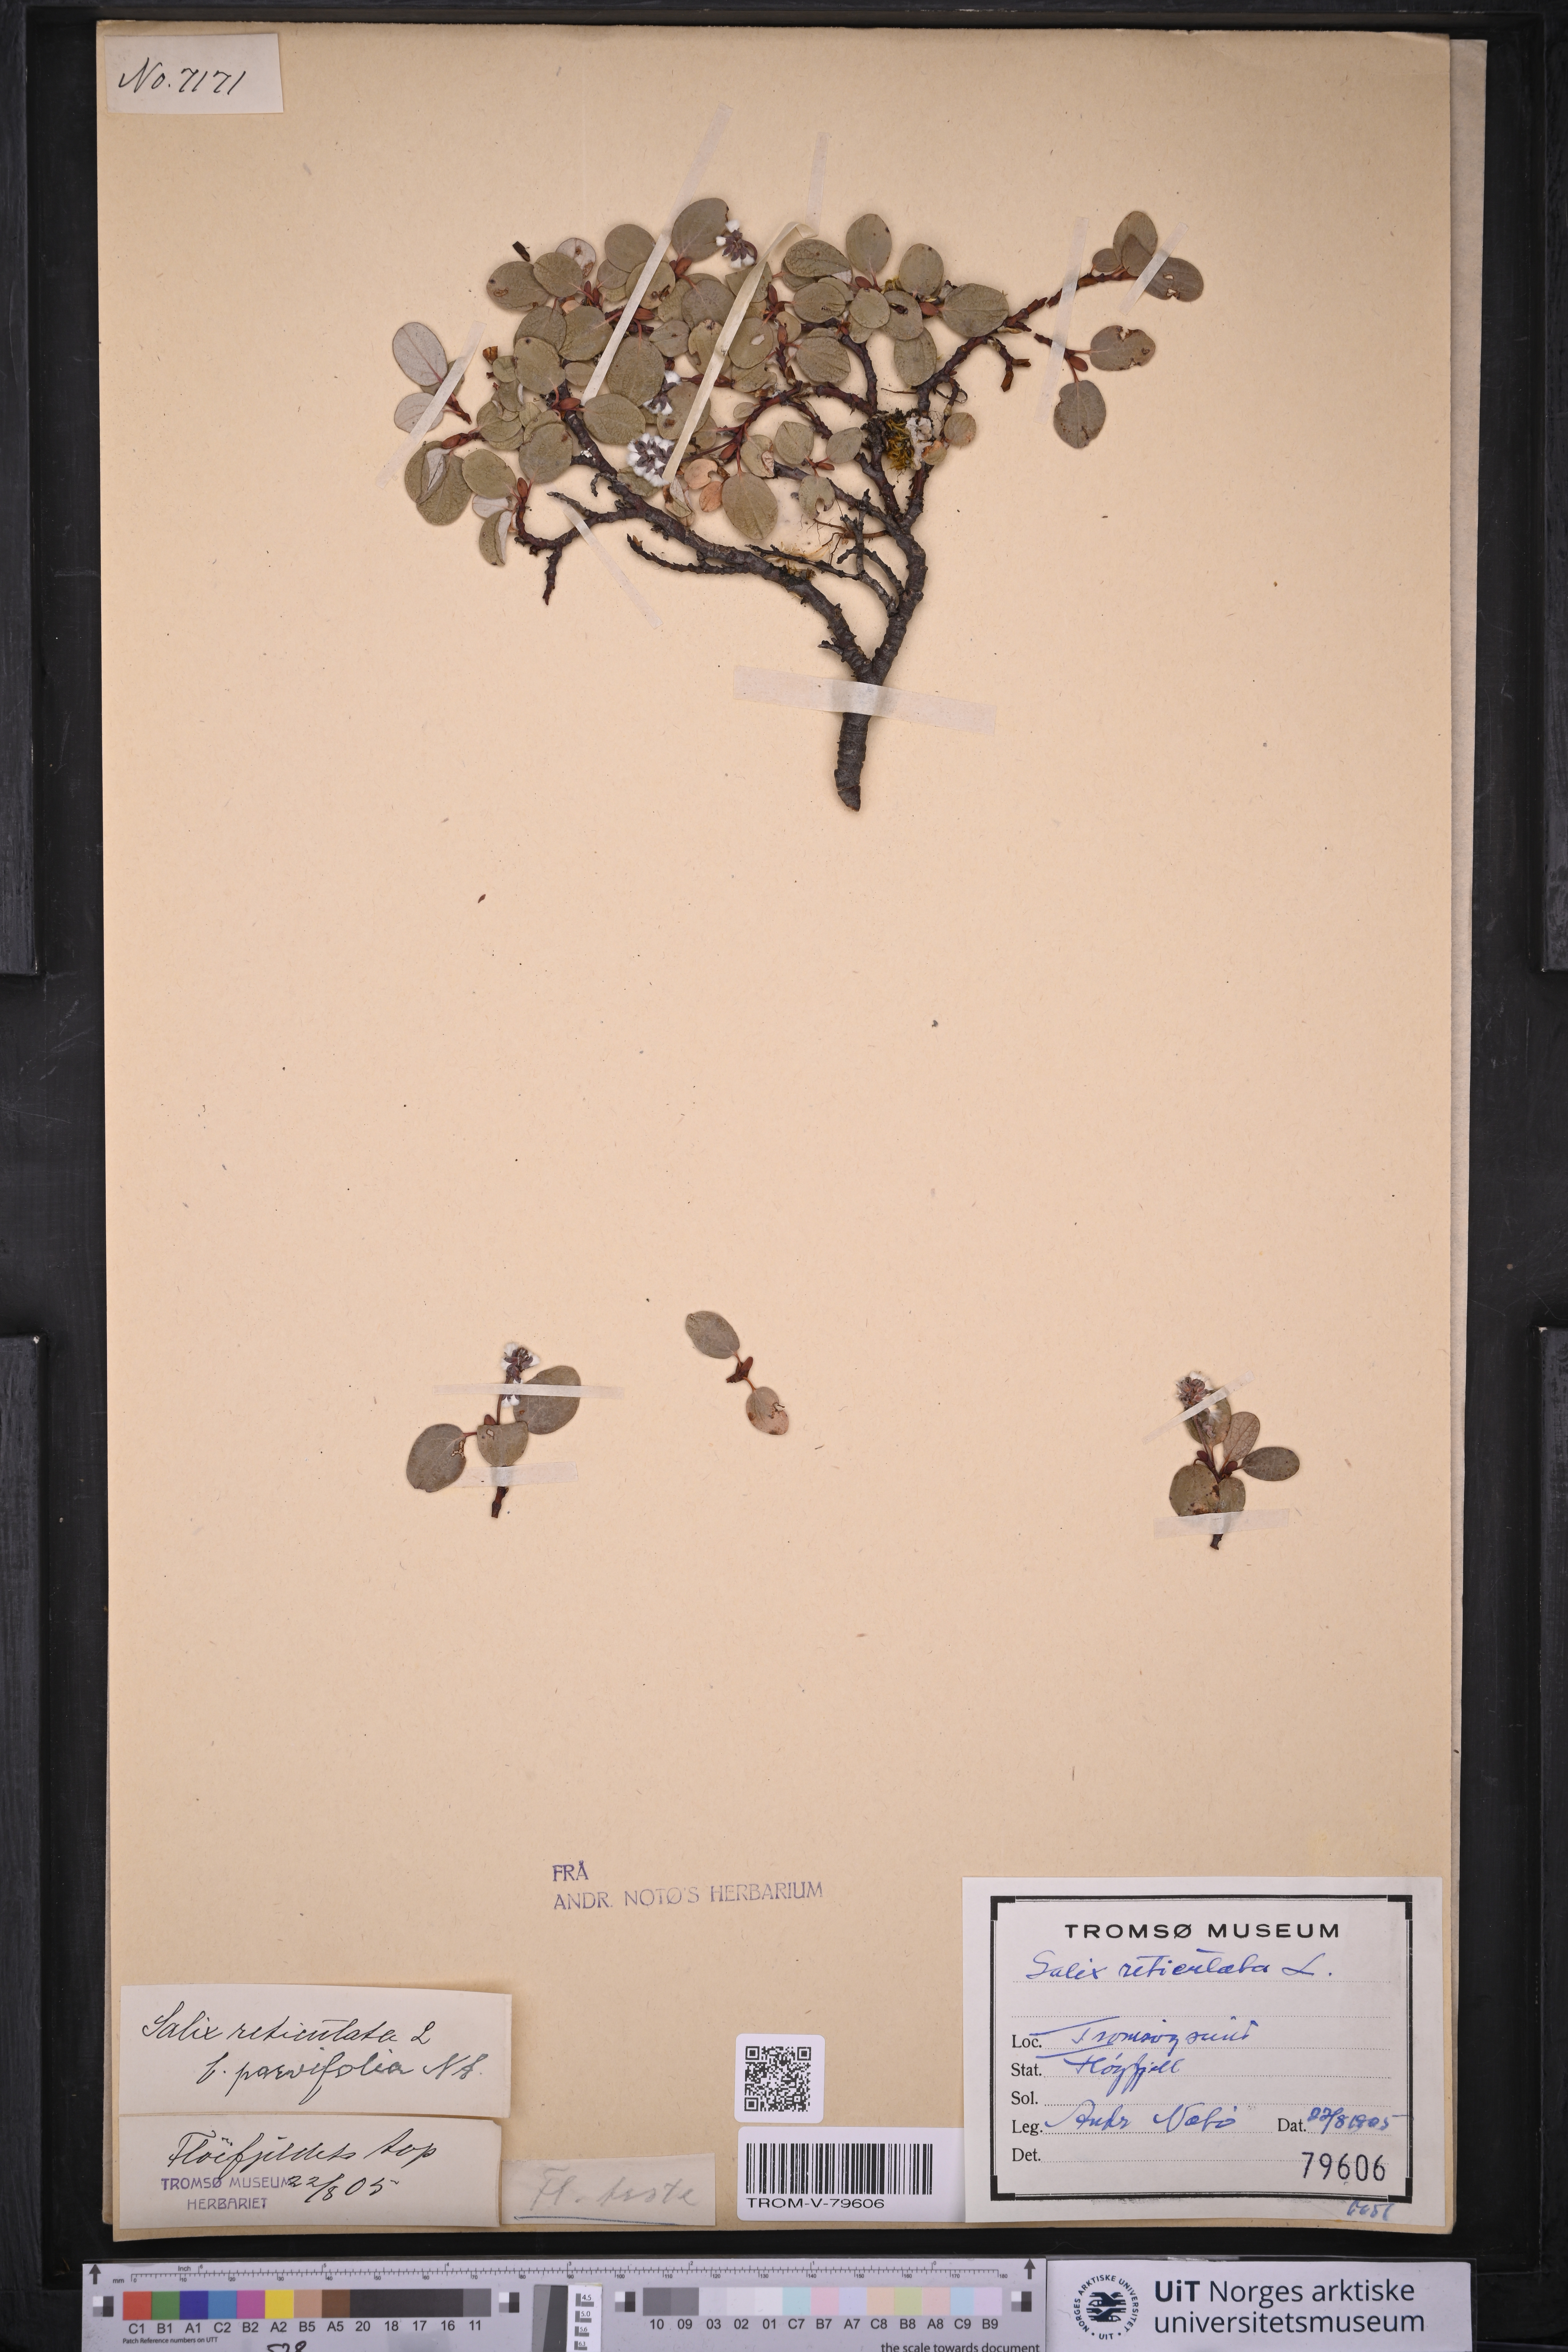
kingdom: Plantae
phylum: Tracheophyta
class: Magnoliopsida
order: Malpighiales
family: Salicaceae
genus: Salix
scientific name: Salix reticulata
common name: Net-leaved willow
